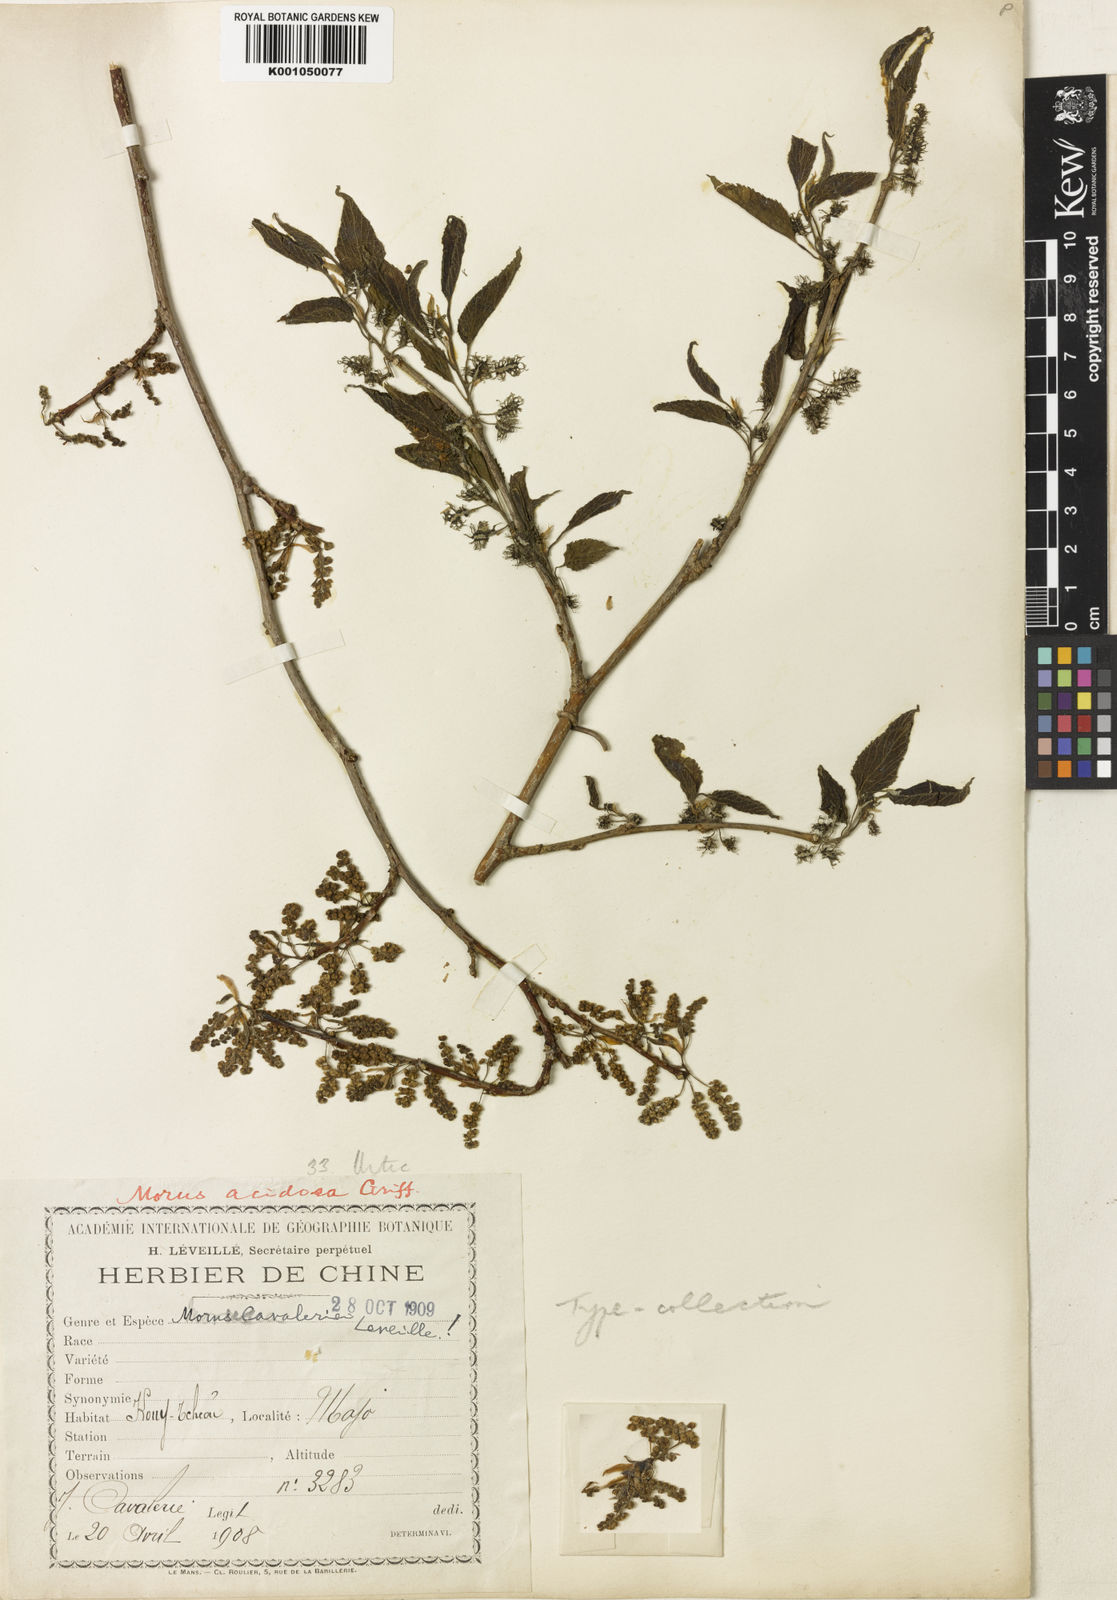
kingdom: Plantae
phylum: Tracheophyta
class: Magnoliopsida
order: Rosales
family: Moraceae
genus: Morus
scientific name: Morus indica
